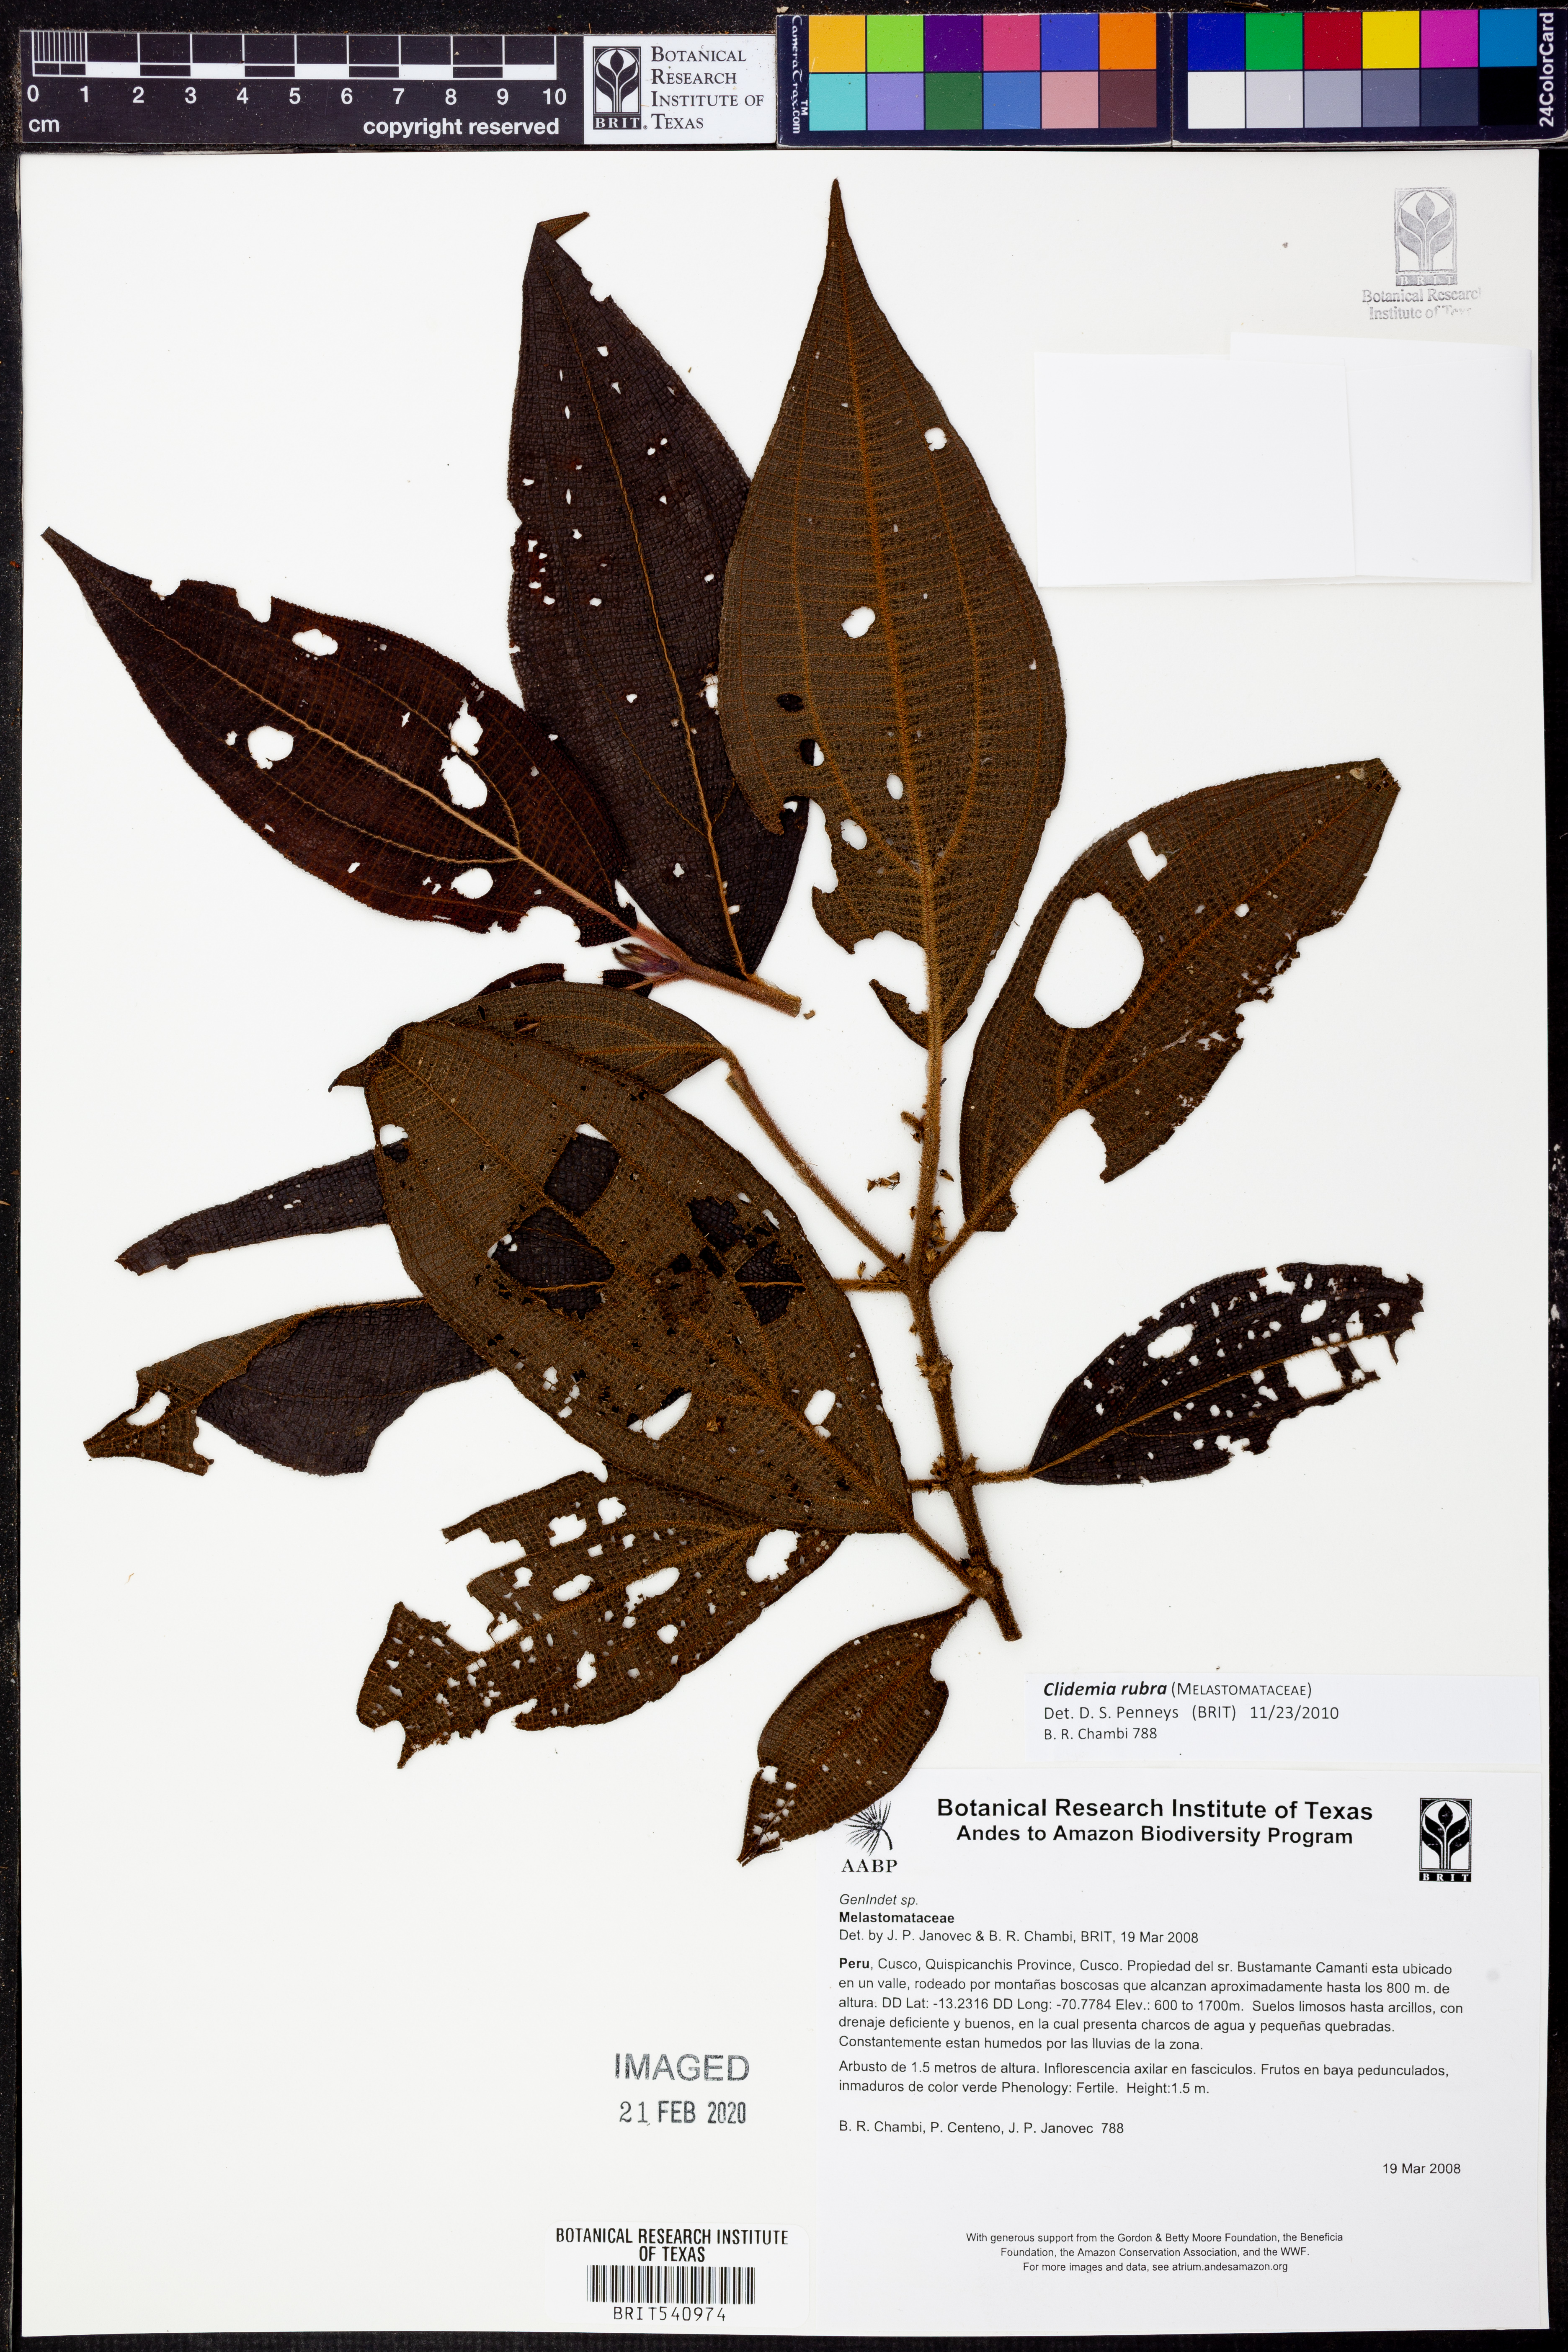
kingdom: Plantae
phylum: Tracheophyta
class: Magnoliopsida
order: Myrtales
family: Melastomataceae
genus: Miconia
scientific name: Miconia rubra
